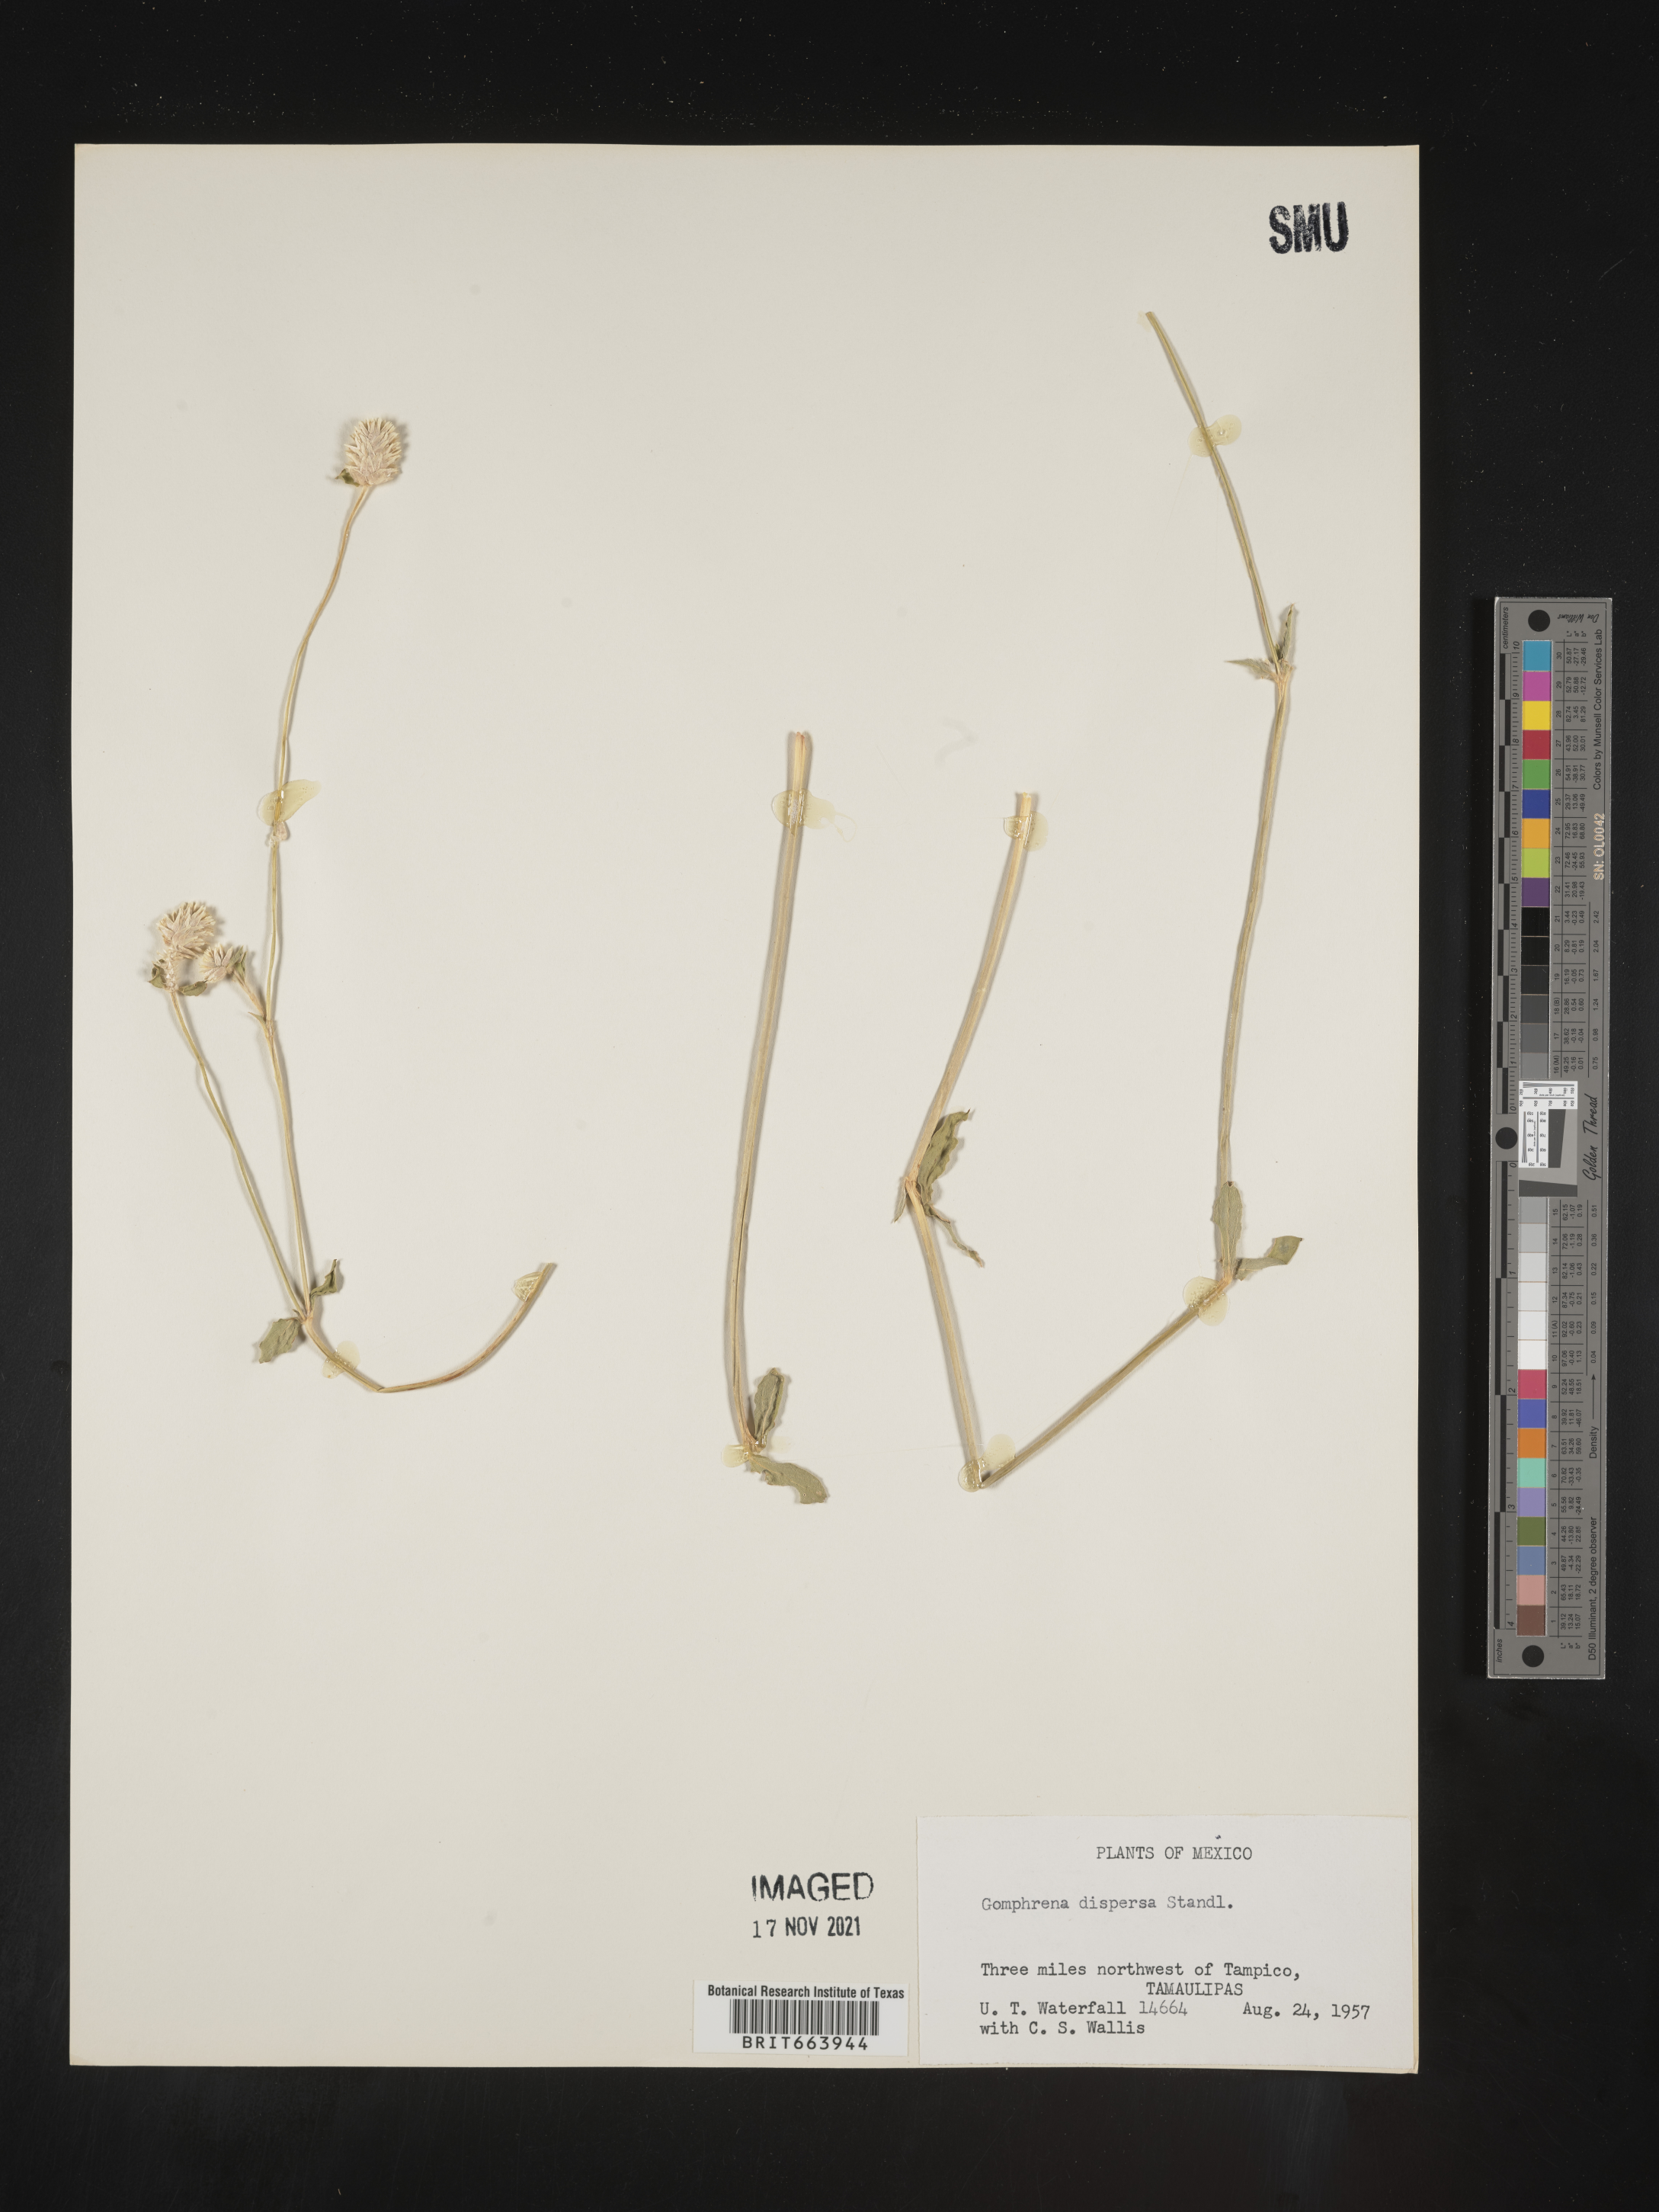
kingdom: Plantae
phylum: Tracheophyta
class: Magnoliopsida
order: Caryophyllales
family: Amaranthaceae
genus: Gomphrena
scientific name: Gomphrena
